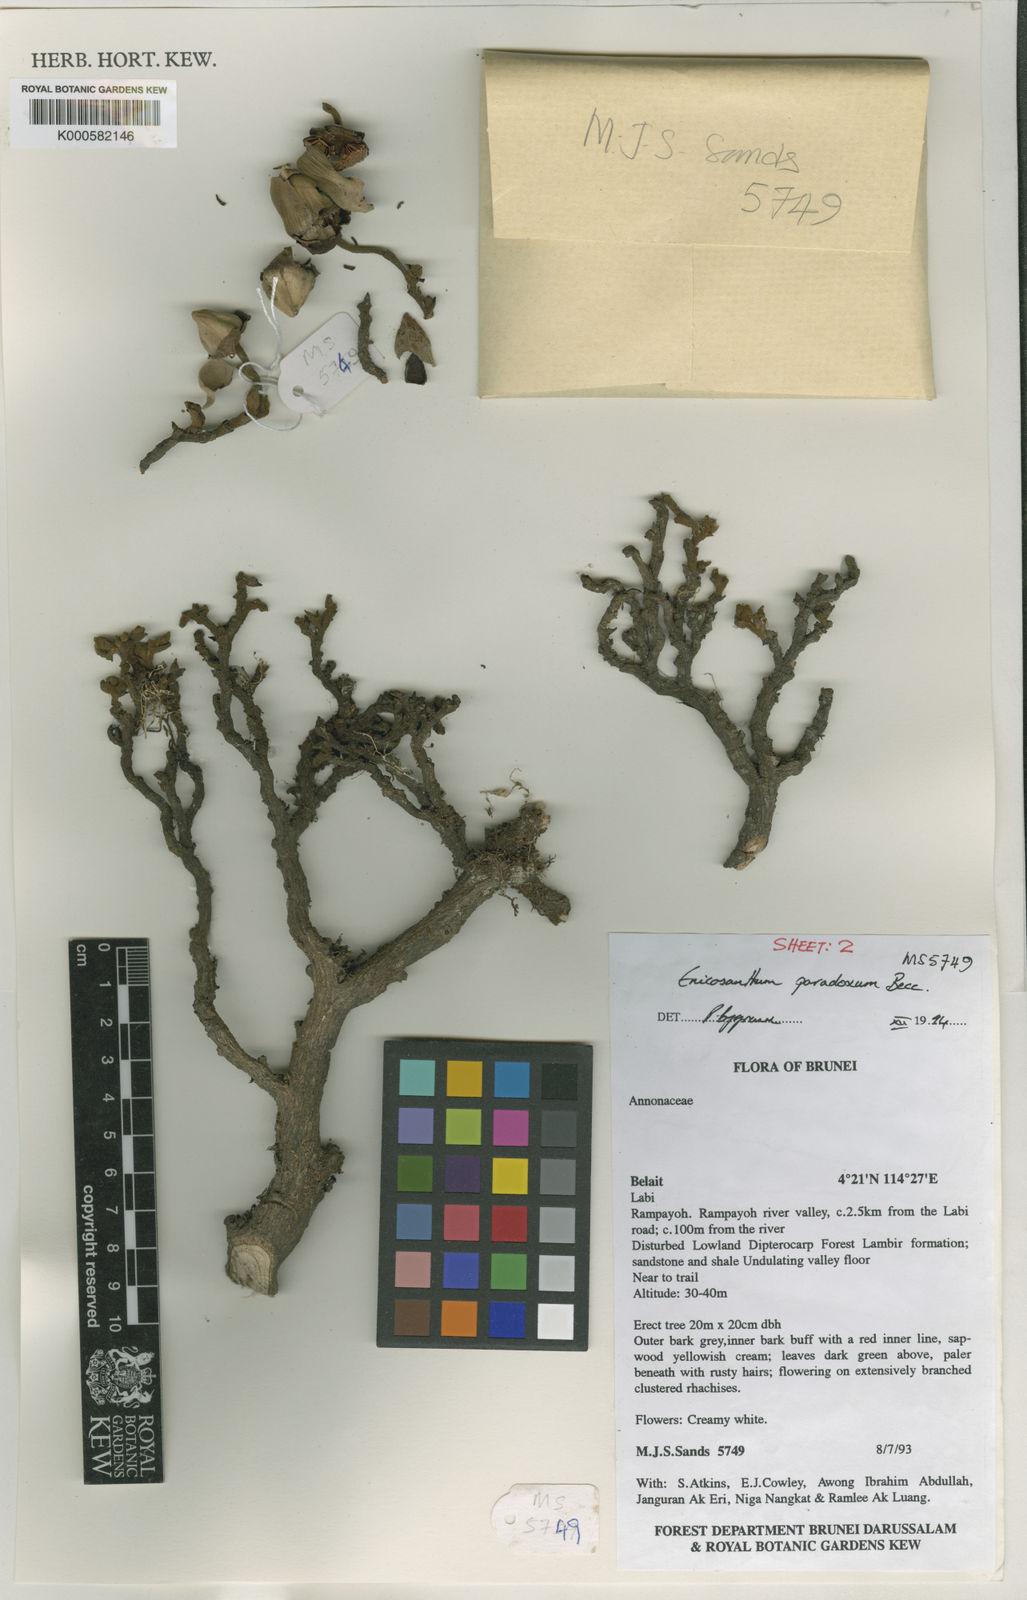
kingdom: Plantae
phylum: Tracheophyta
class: Magnoliopsida
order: Magnoliales
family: Annonaceae
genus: Enicosanthum
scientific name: Enicosanthum paradoxum
